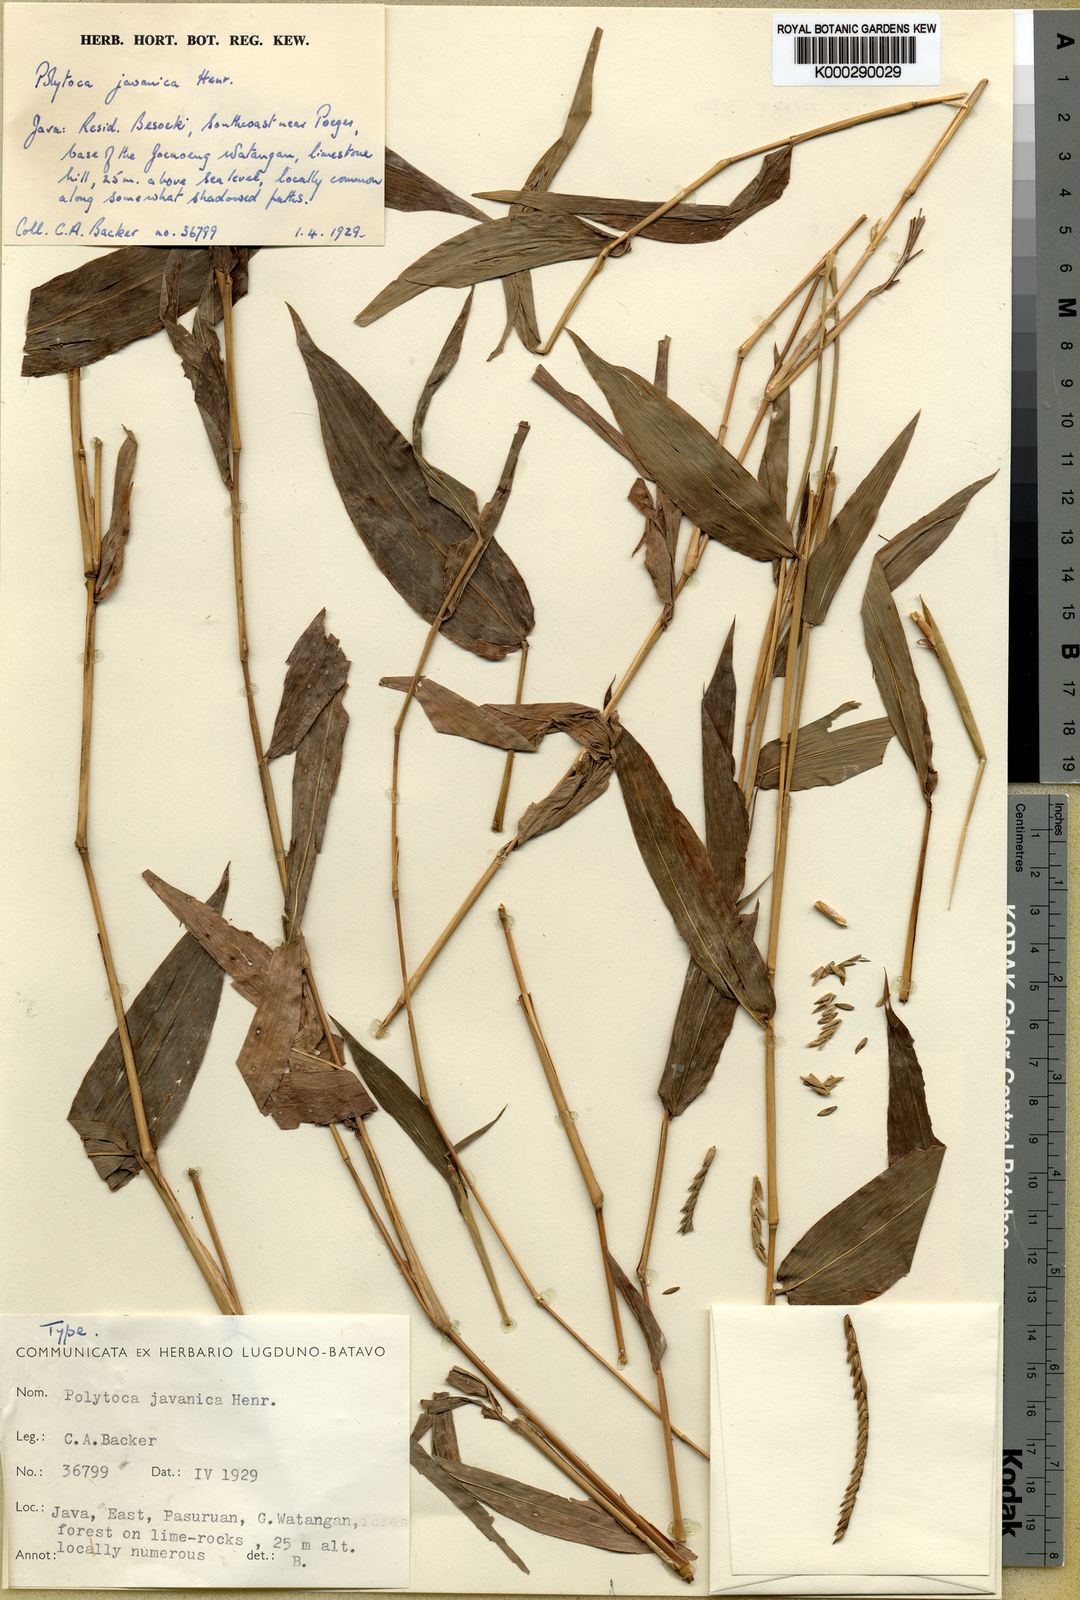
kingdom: Plantae
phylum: Tracheophyta
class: Liliopsida
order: Poales
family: Poaceae
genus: Polytoca
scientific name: Polytoca javanica
